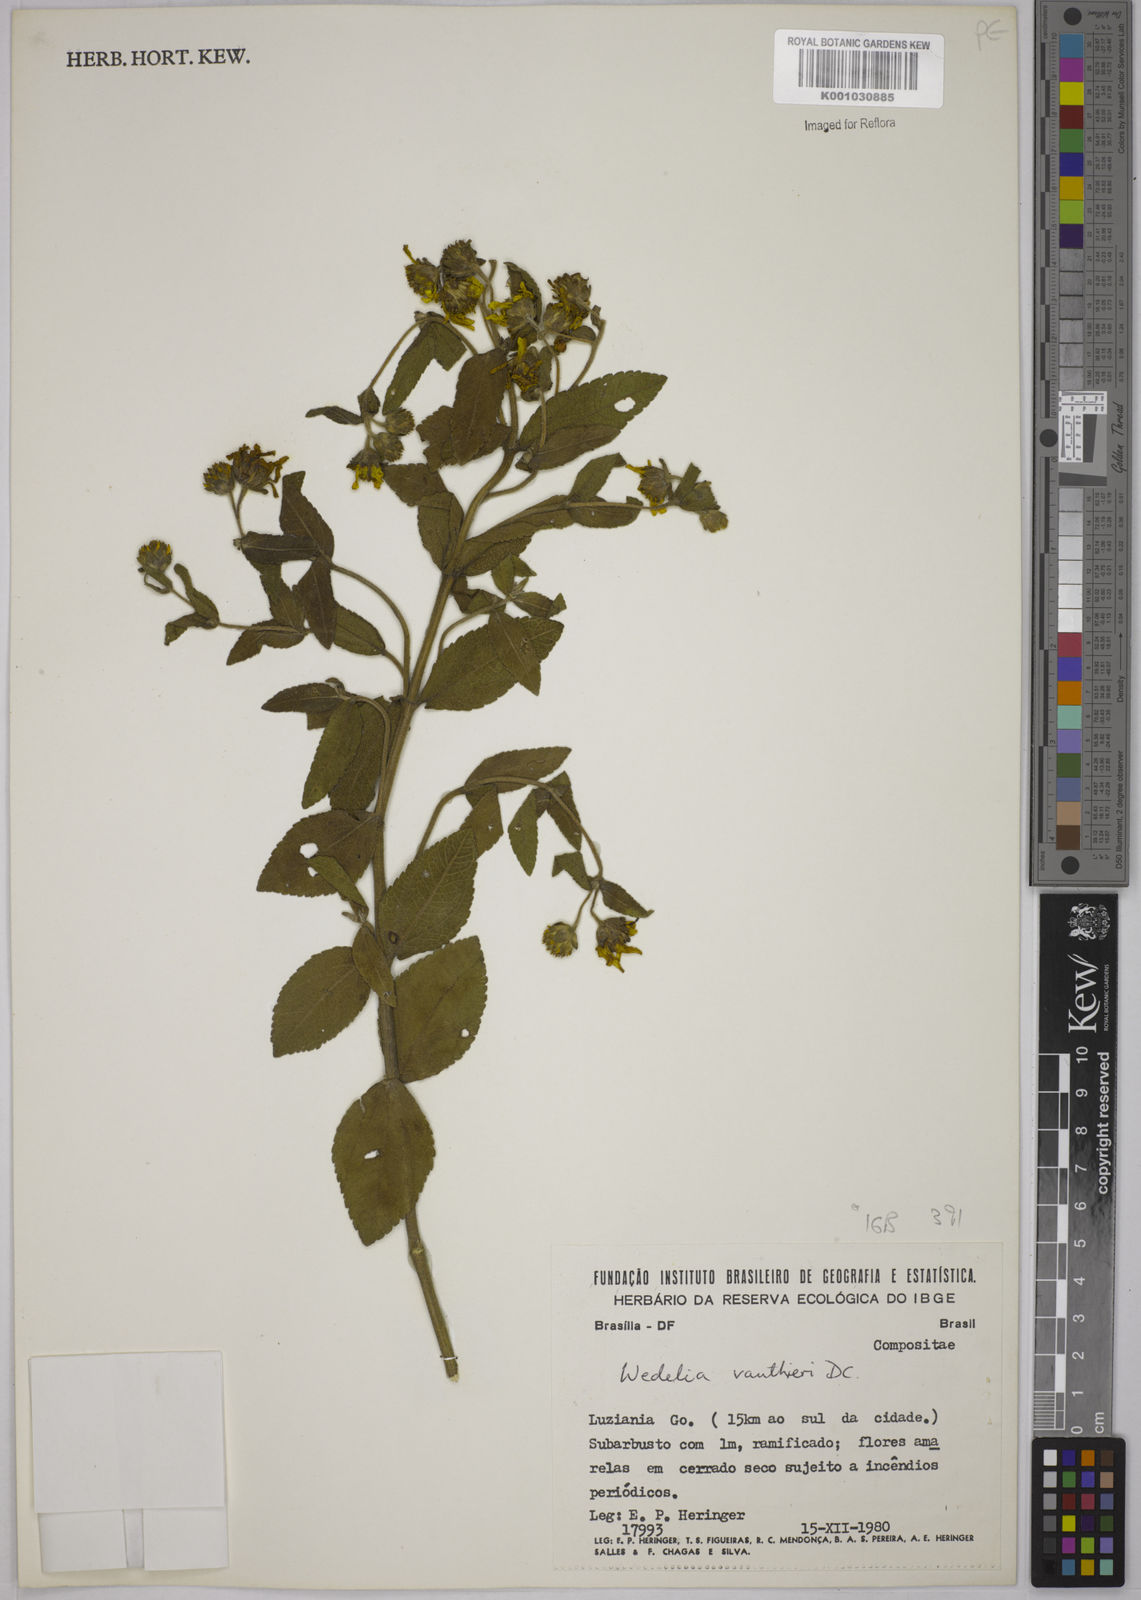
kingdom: Plantae
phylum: Tracheophyta
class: Magnoliopsida
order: Asterales
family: Asteraceae
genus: Wedelia
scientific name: Wedelia vauthieri
